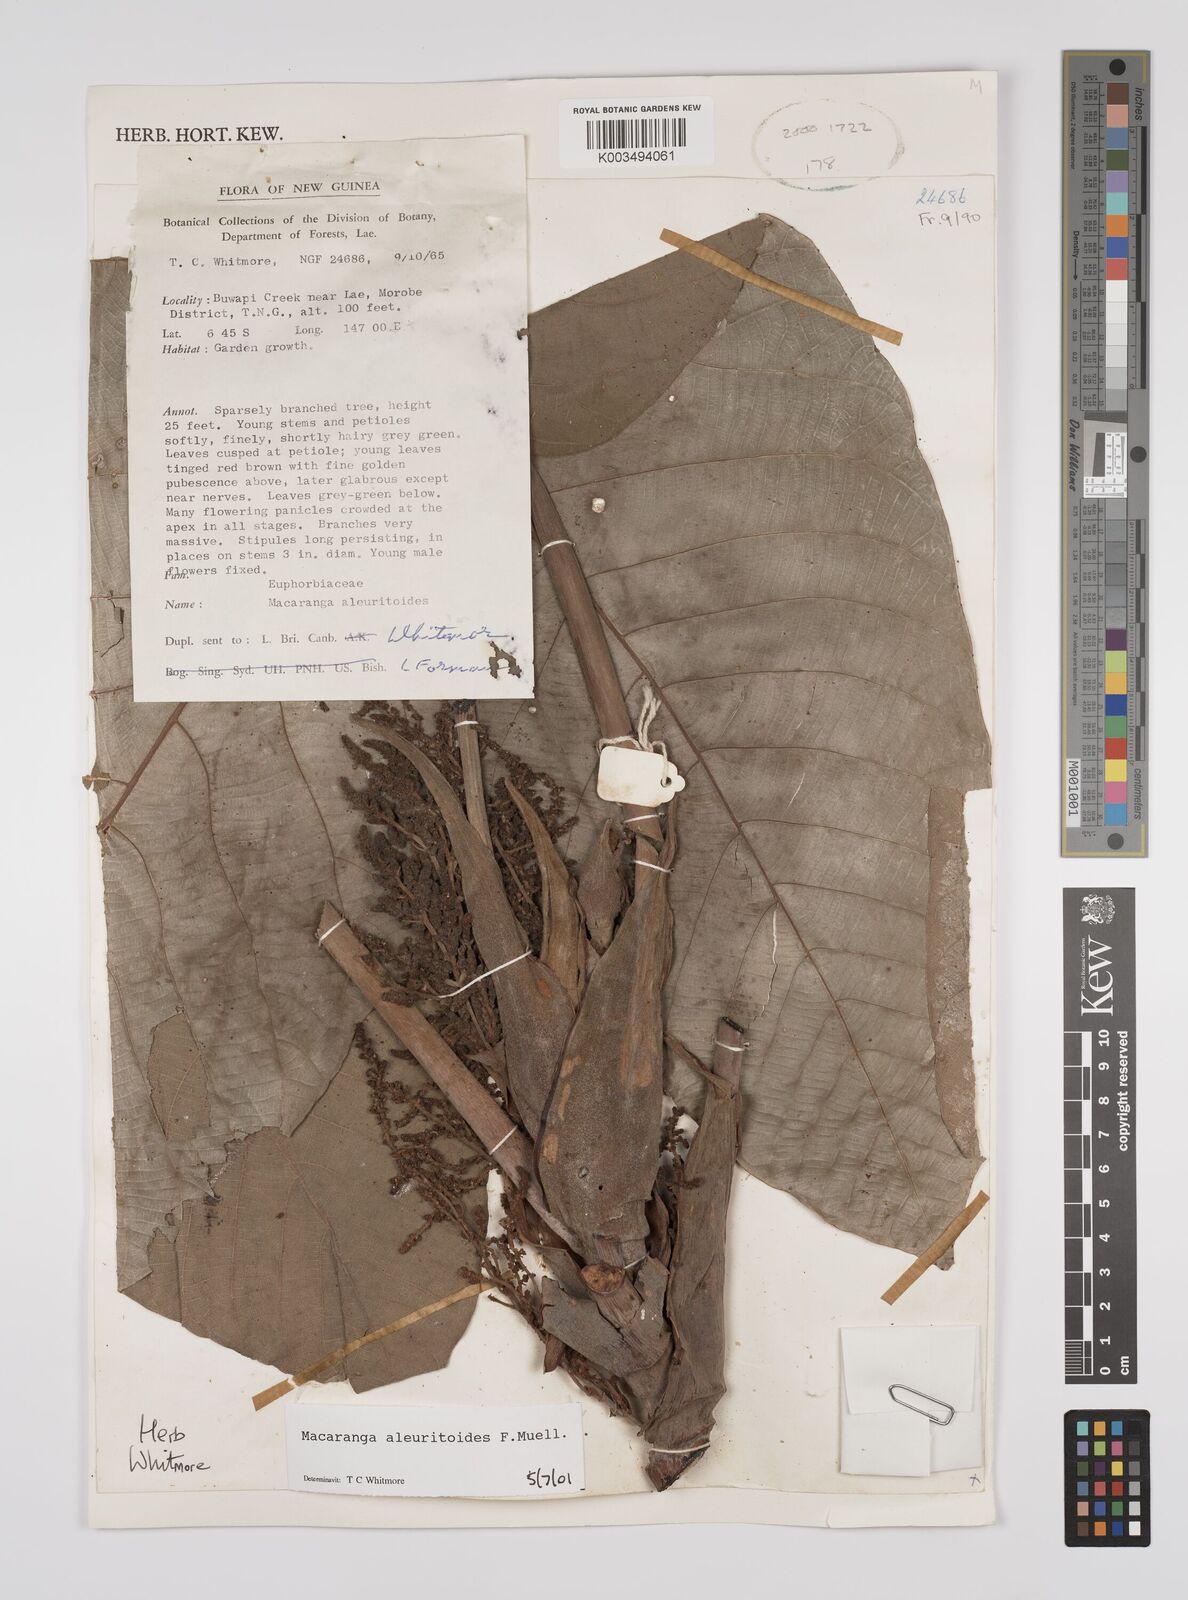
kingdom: Plantae
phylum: Tracheophyta
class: Magnoliopsida
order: Malpighiales
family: Euphorbiaceae
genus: Macaranga
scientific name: Macaranga aleuritoides
